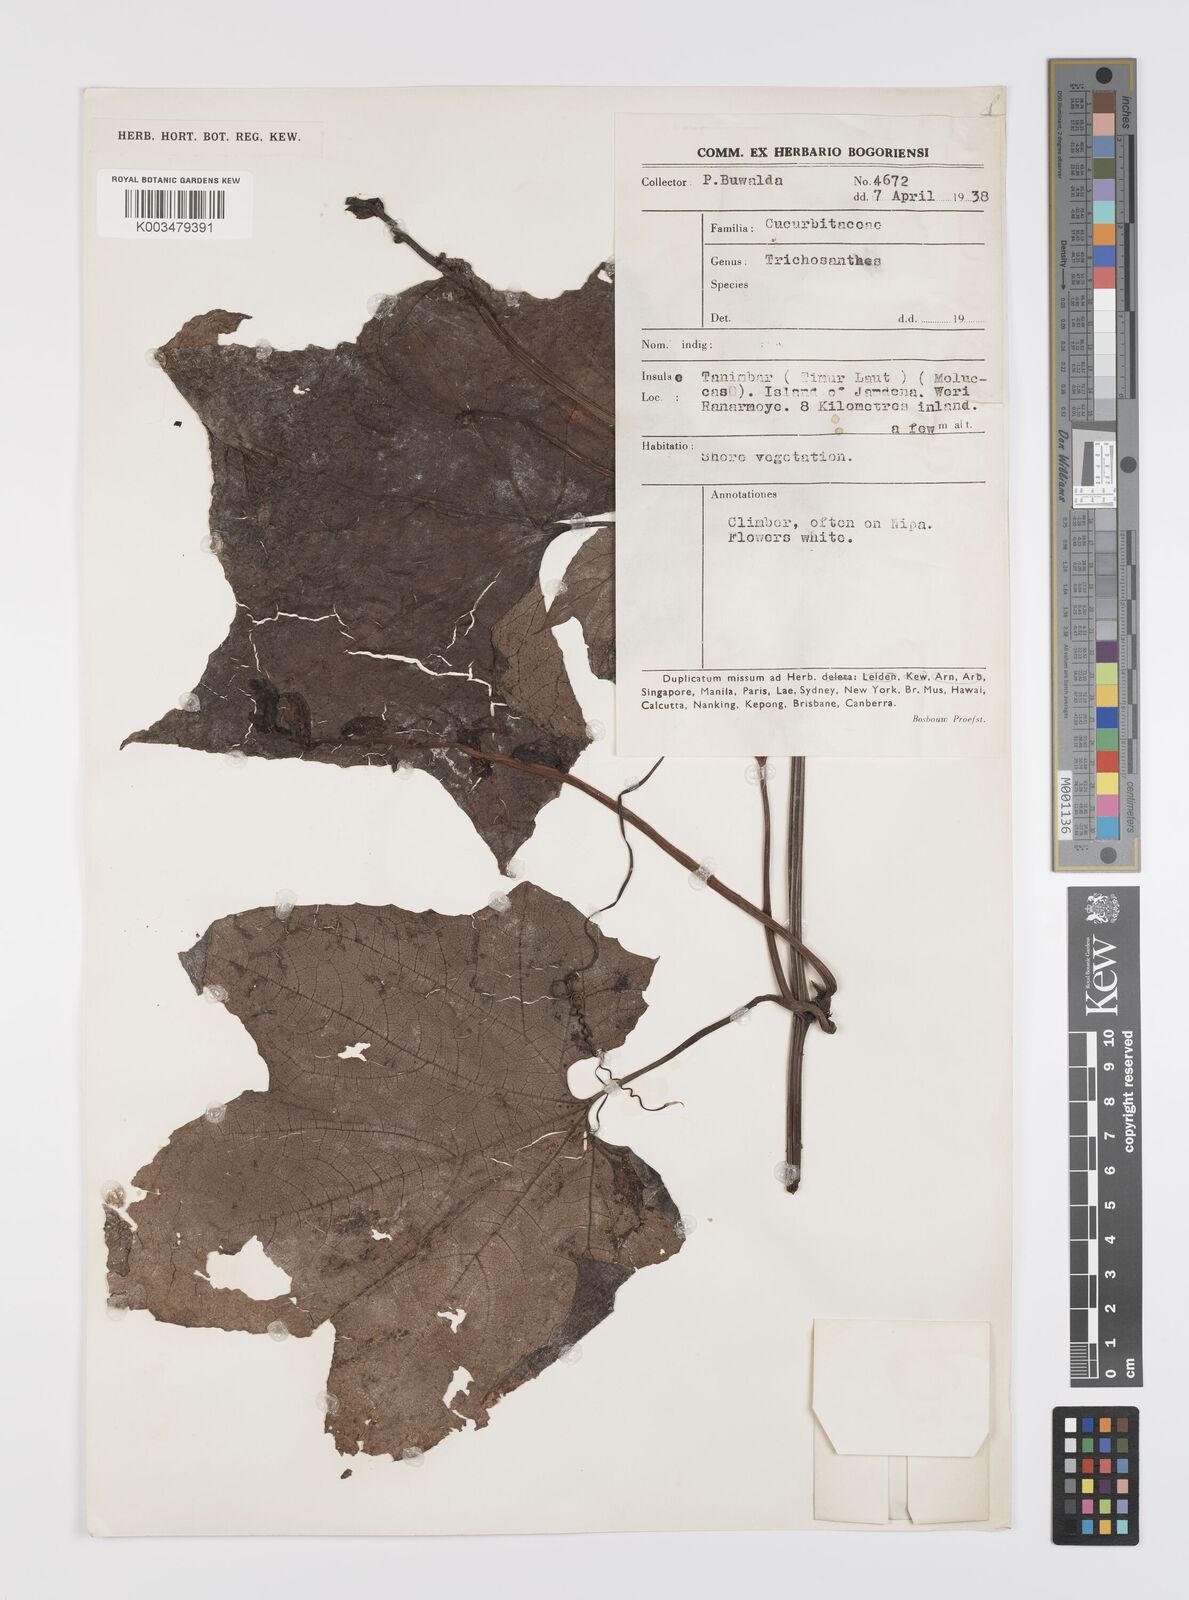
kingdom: Plantae
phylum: Tracheophyta
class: Magnoliopsida
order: Cucurbitales
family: Cucurbitaceae
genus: Trichosanthes
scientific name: Trichosanthes tricuspidata
